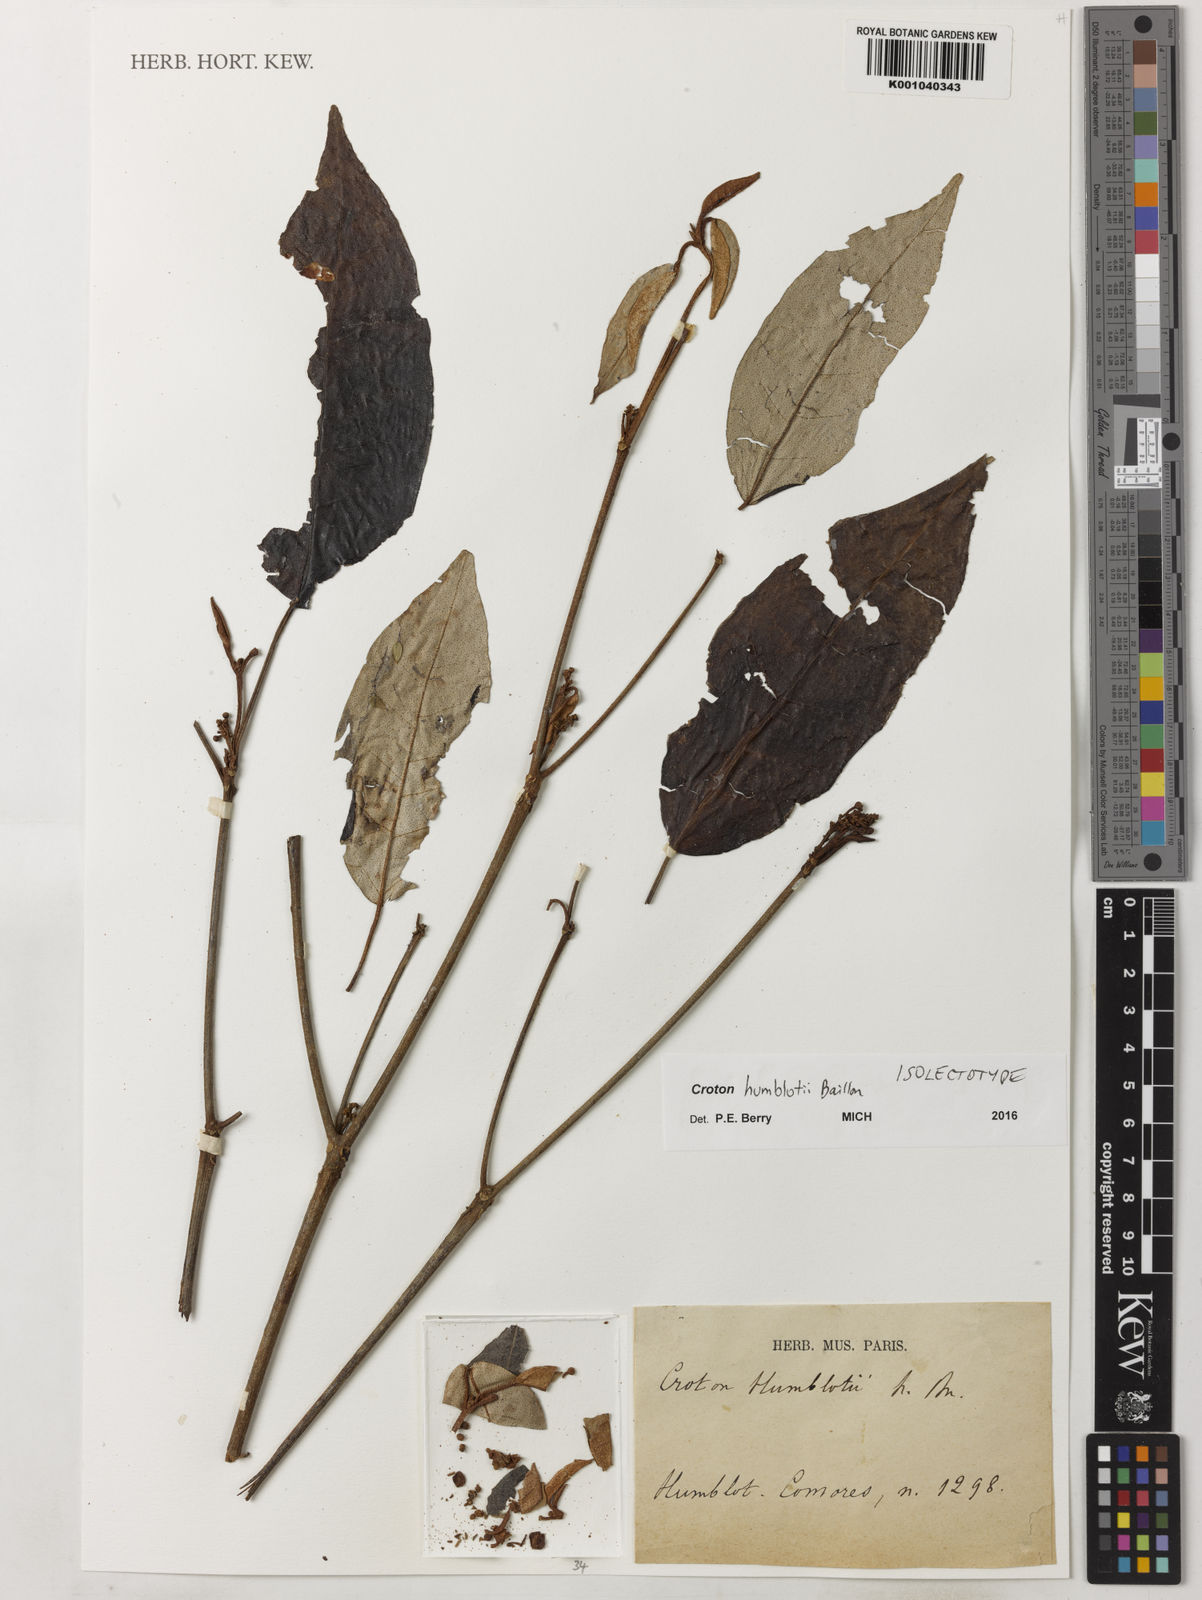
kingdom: Plantae
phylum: Tracheophyta
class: Magnoliopsida
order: Malpighiales
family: Euphorbiaceae
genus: Croton
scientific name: Croton humblotii
